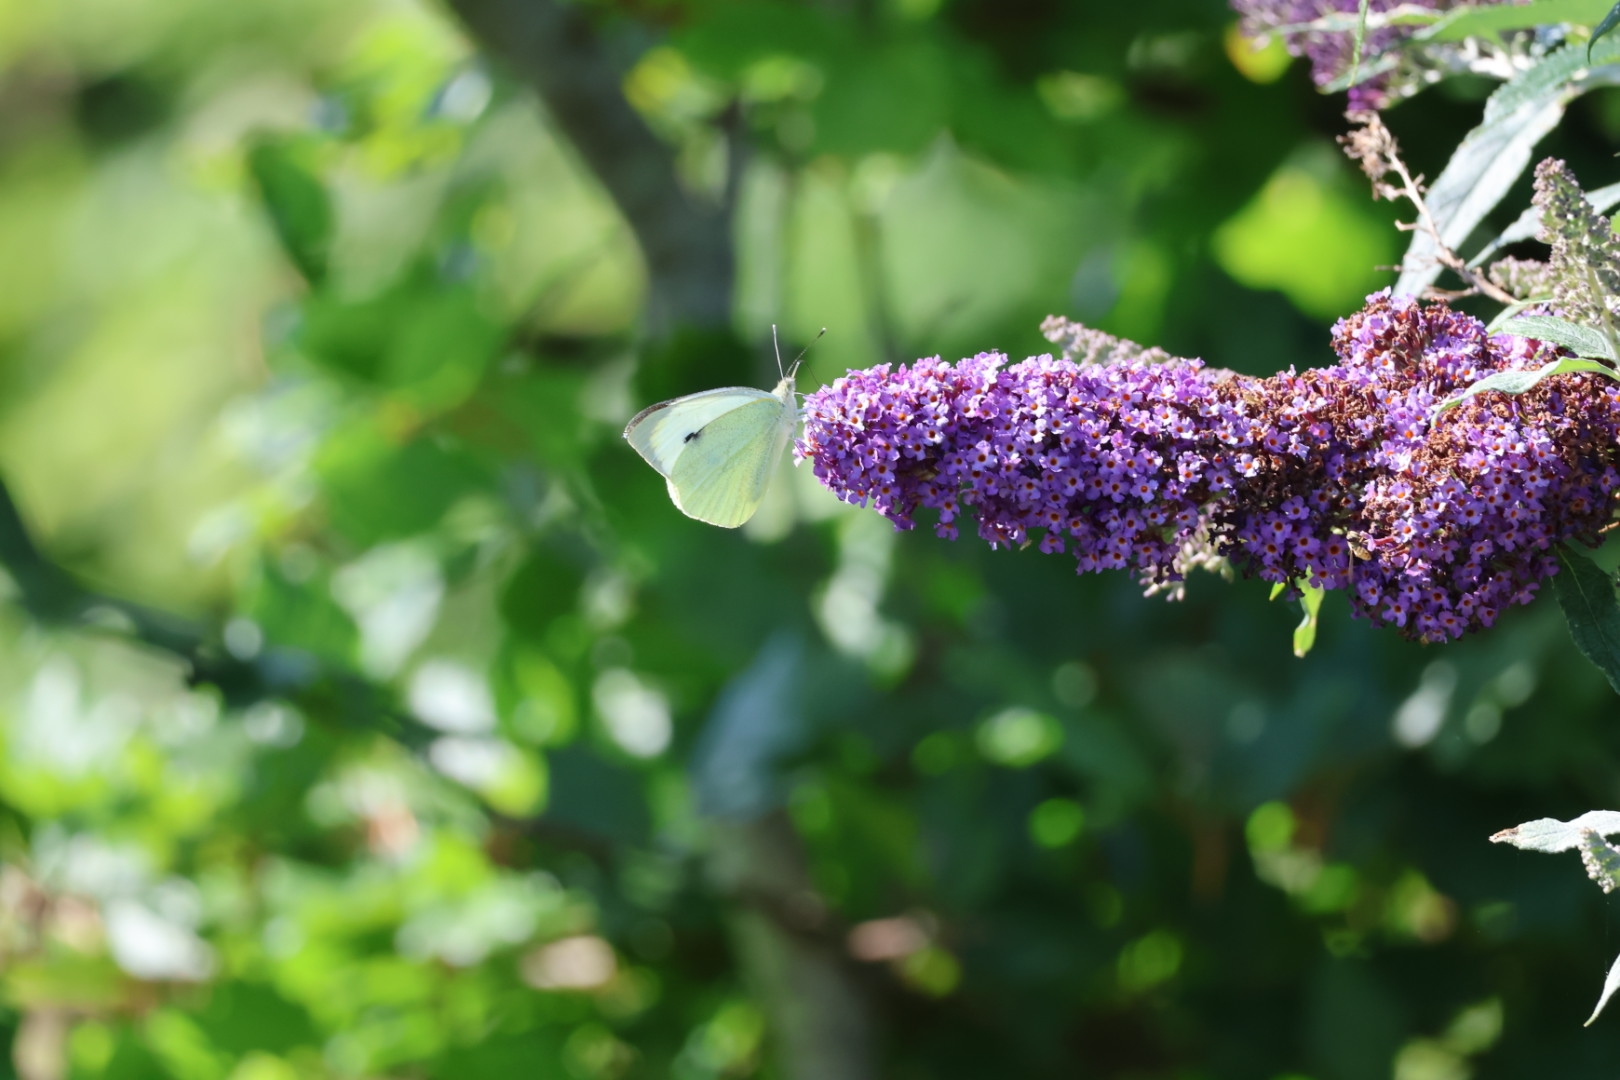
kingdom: Animalia
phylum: Arthropoda
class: Insecta
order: Lepidoptera
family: Pieridae
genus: Pieris
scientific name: Pieris brassicae
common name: Stor kålsommerfugl
